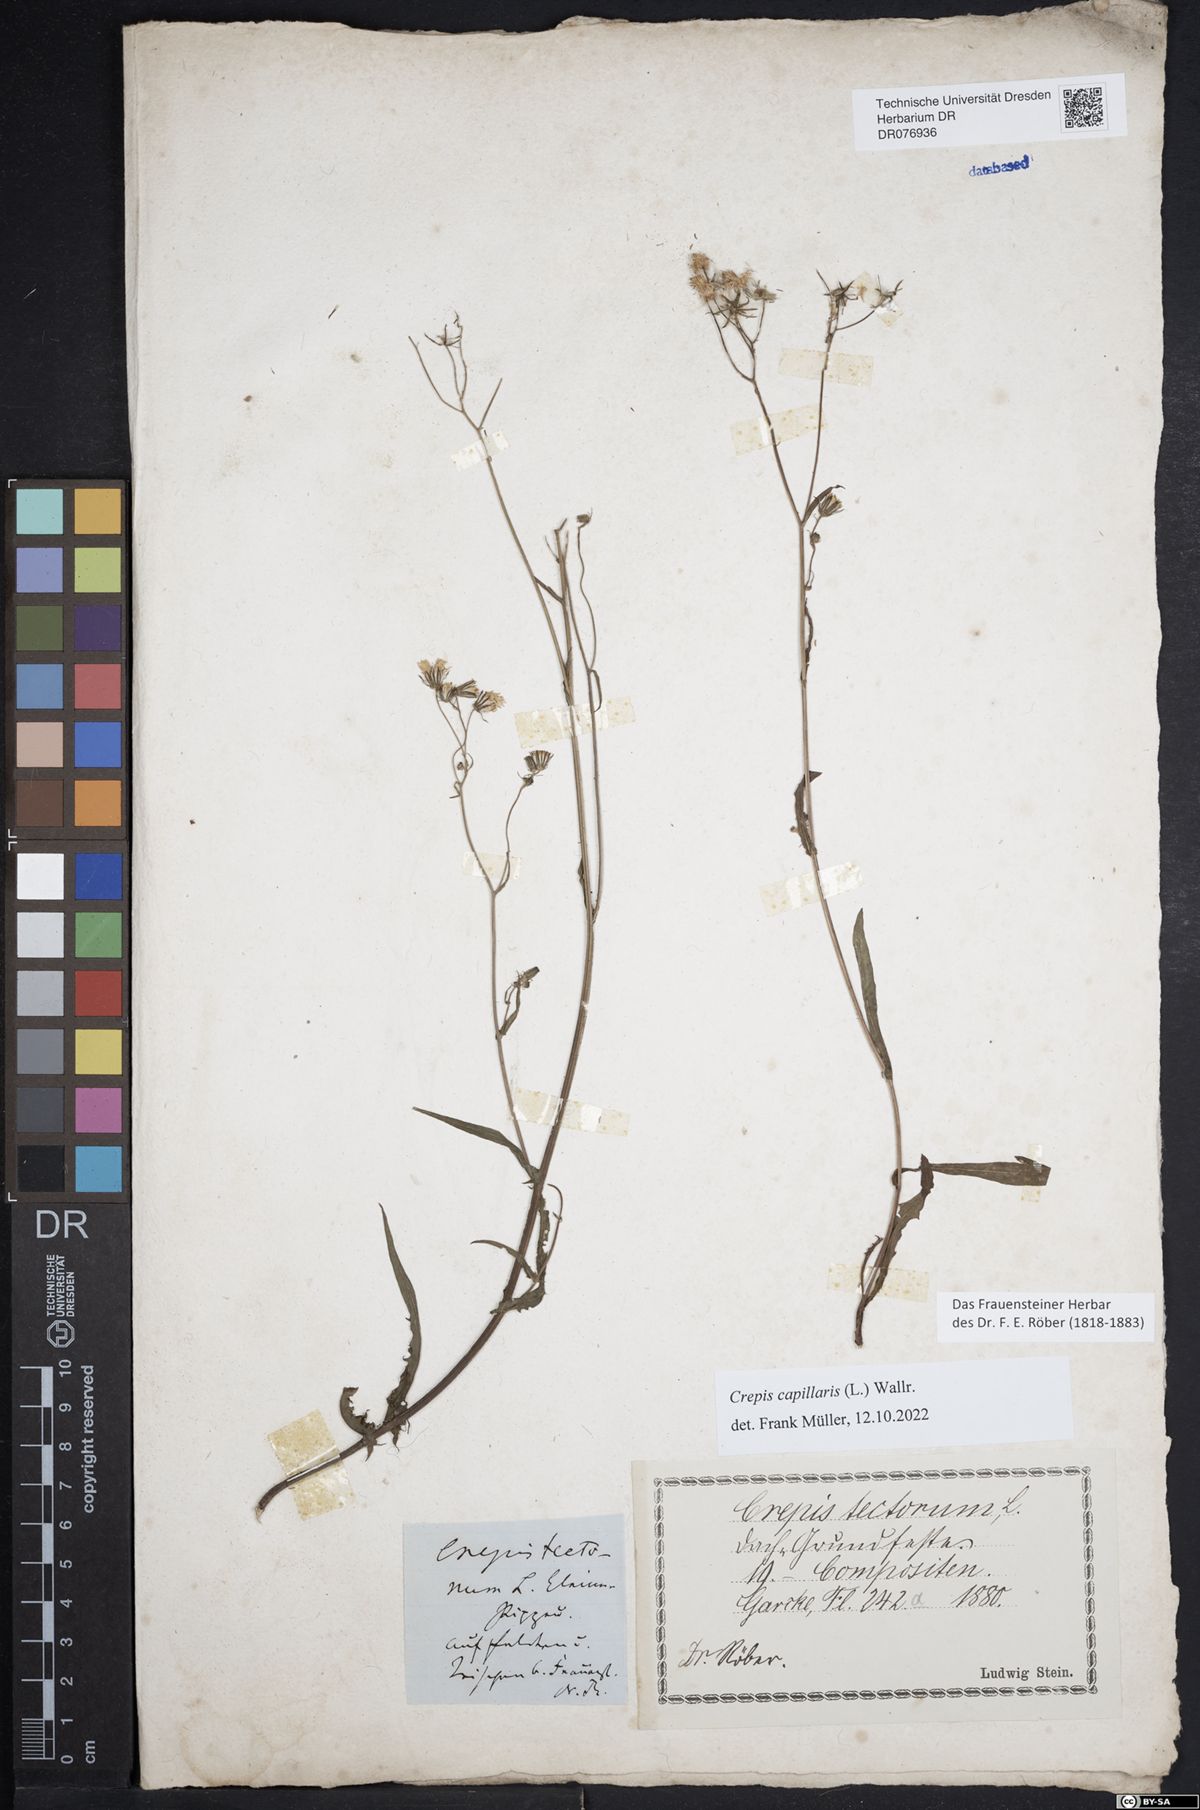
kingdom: Plantae
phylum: Tracheophyta
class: Magnoliopsida
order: Asterales
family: Asteraceae
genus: Crepis
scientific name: Crepis capillaris
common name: Smooth hawksbeard
